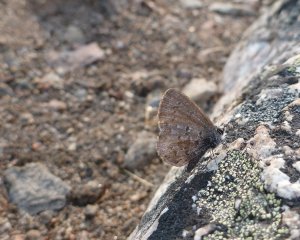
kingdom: Animalia
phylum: Arthropoda
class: Insecta
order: Lepidoptera
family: Lycaenidae
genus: Celastrina
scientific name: Celastrina ladon
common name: Spring Azure
